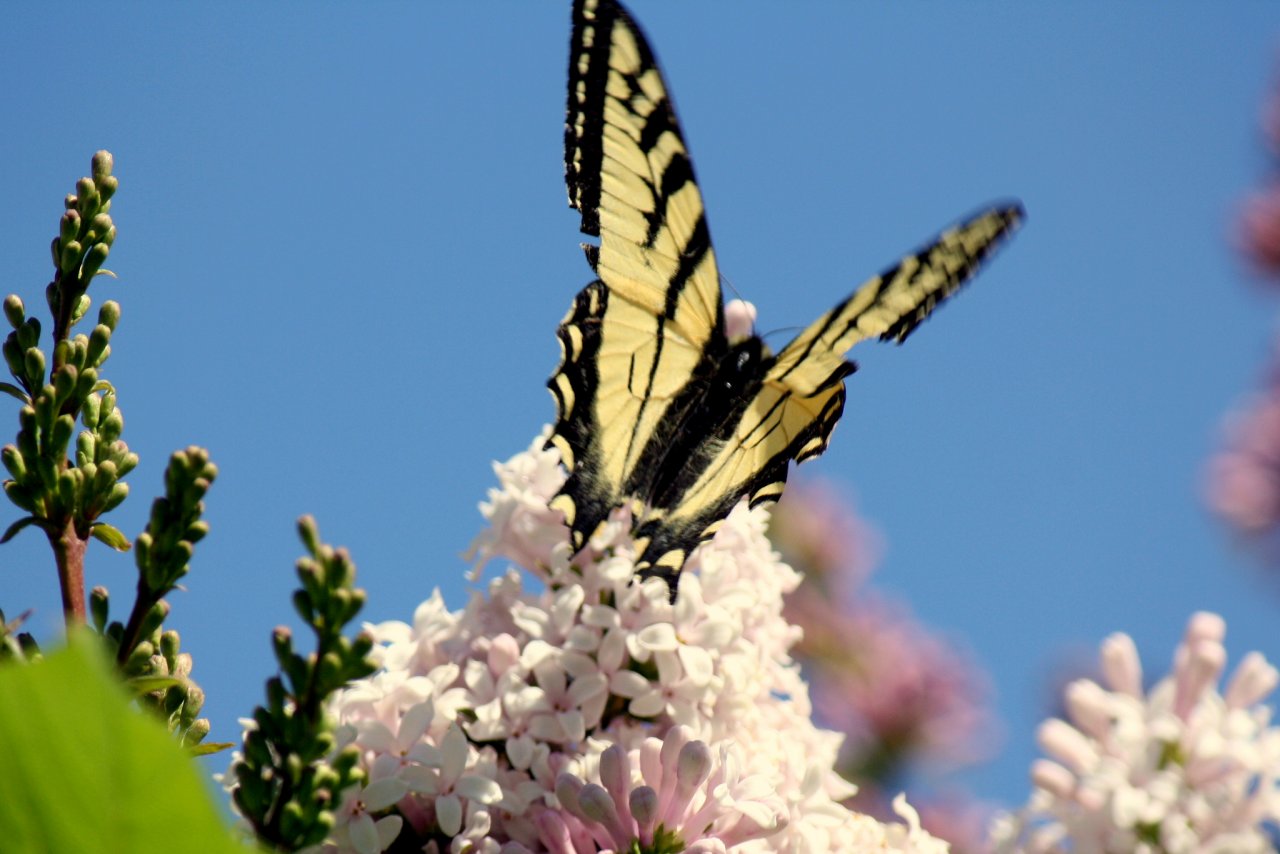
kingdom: Animalia
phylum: Arthropoda
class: Insecta
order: Lepidoptera
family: Papilionidae
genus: Pterourus
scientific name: Pterourus canadensis
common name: Canadian Tiger Swallowtail
